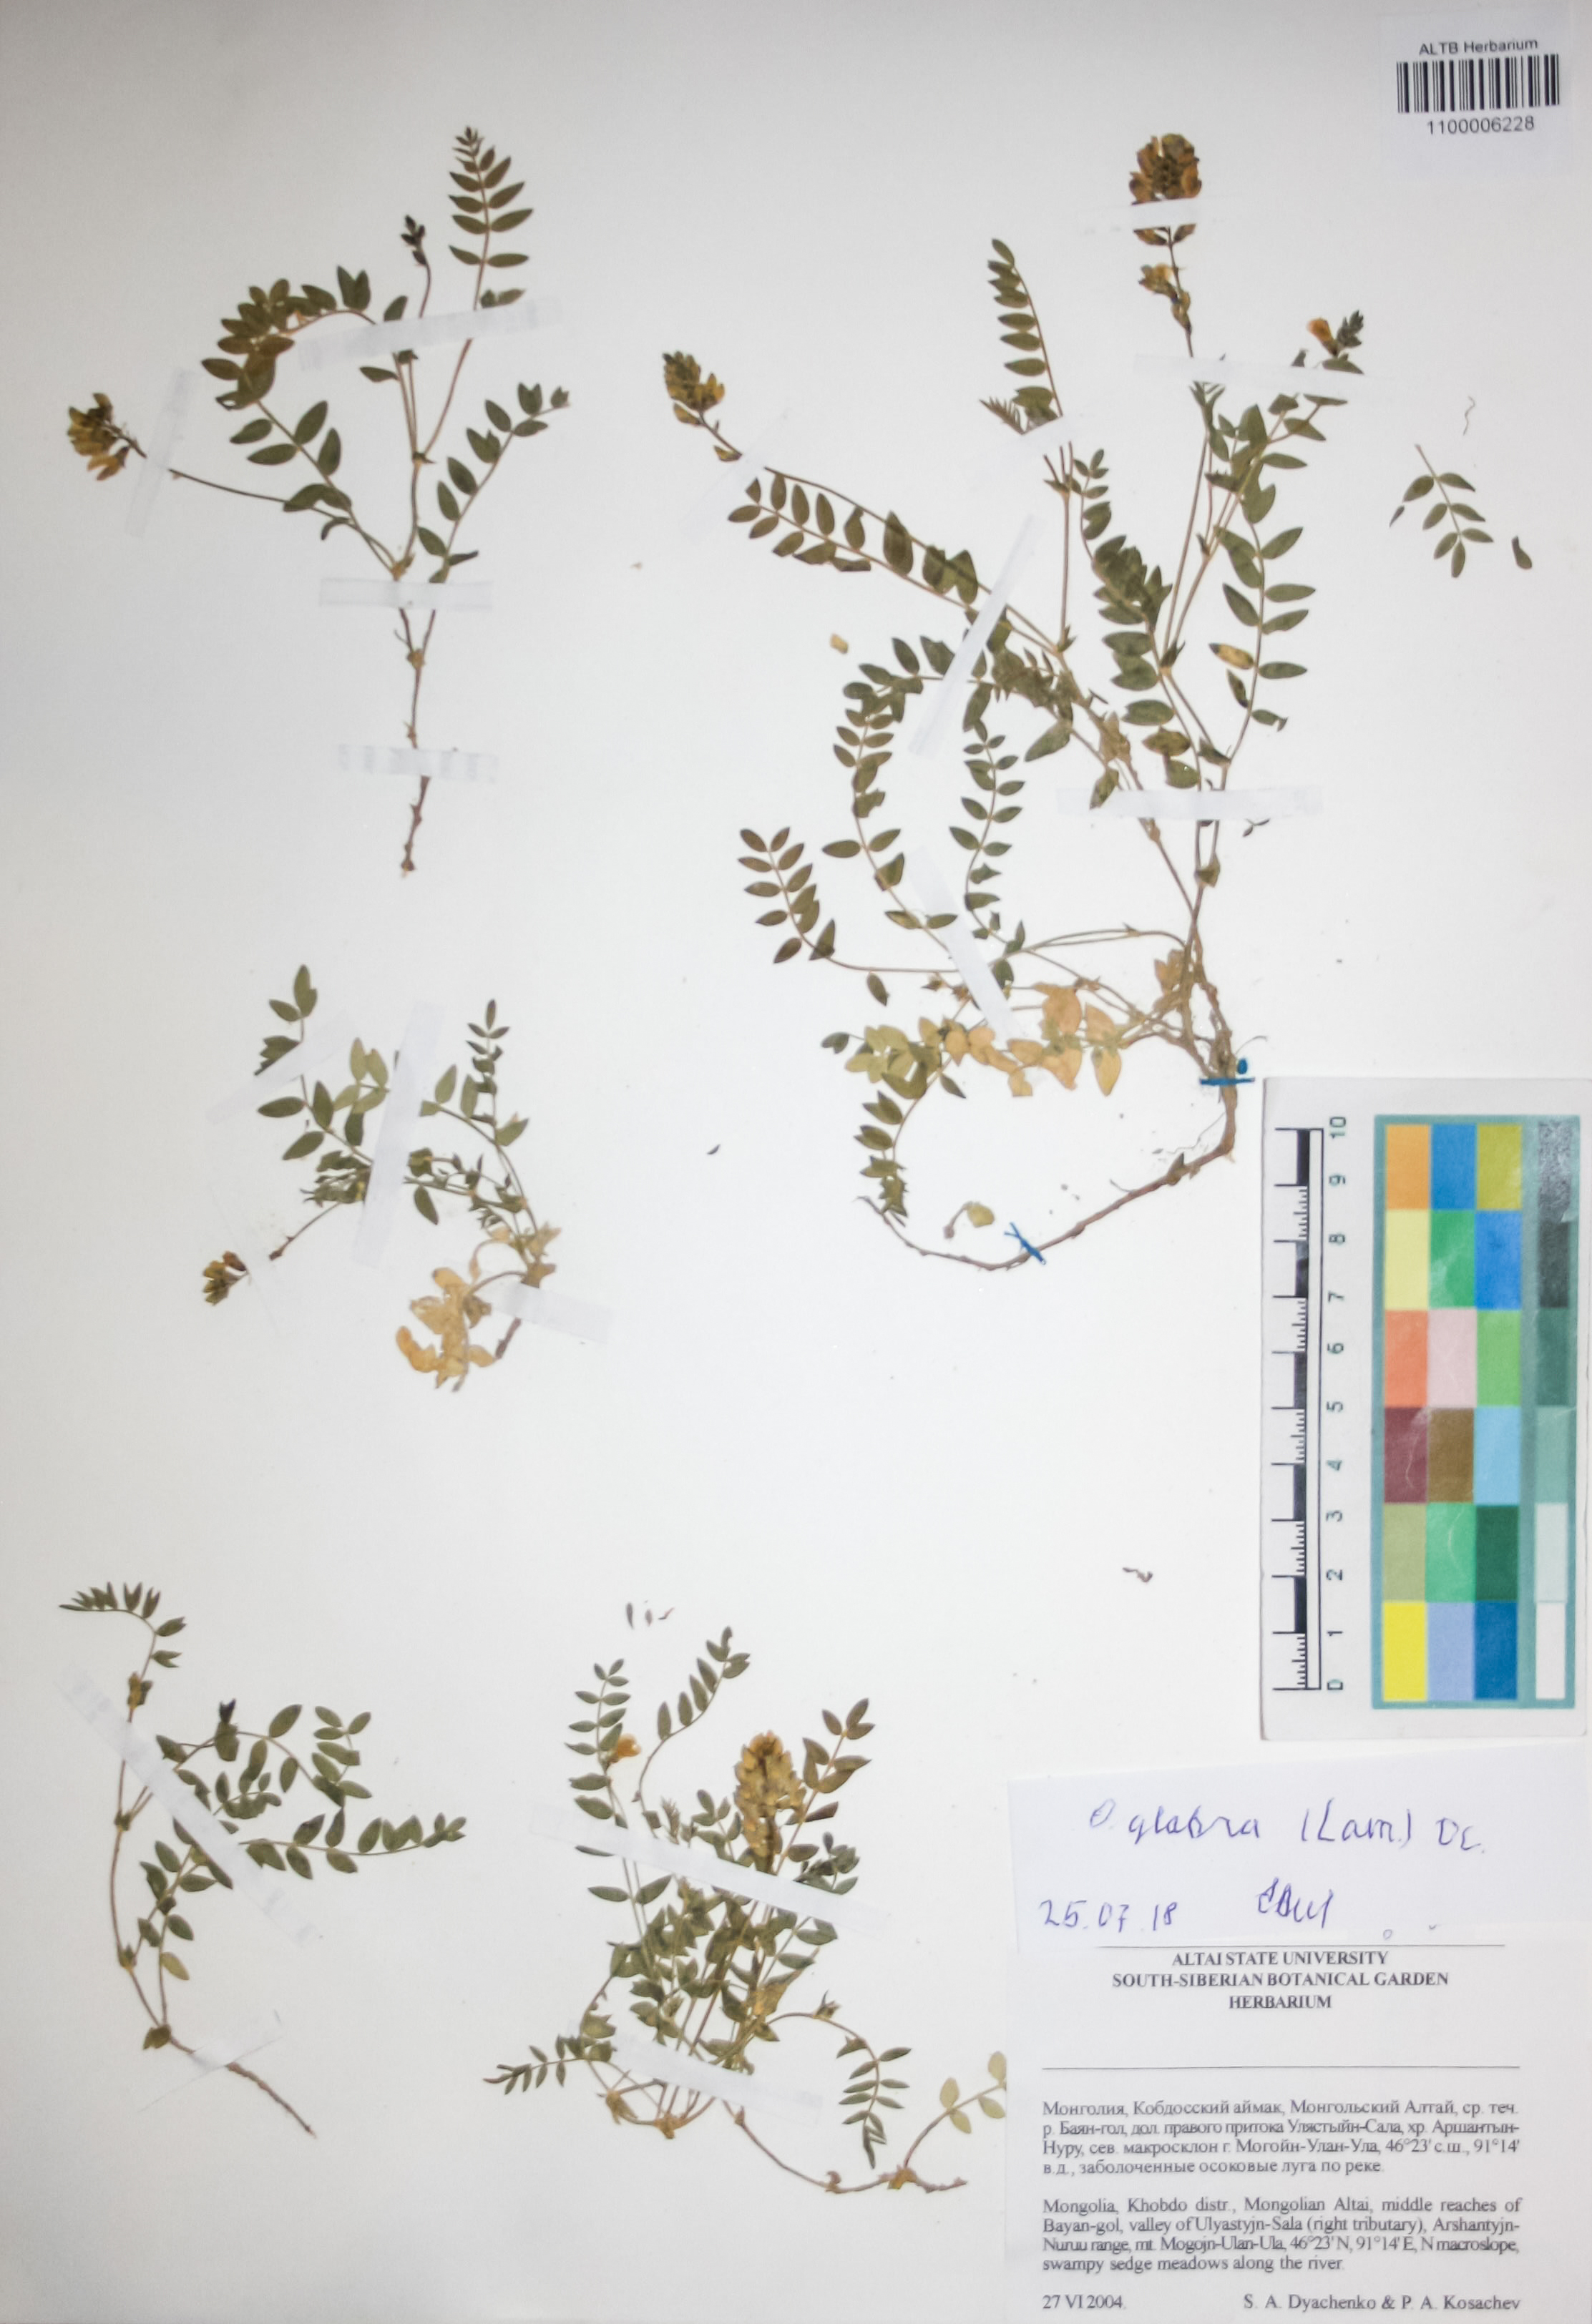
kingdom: Plantae
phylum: Tracheophyta
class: Magnoliopsida
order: Fabales
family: Fabaceae
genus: Oxytropis
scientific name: Oxytropis glabra
